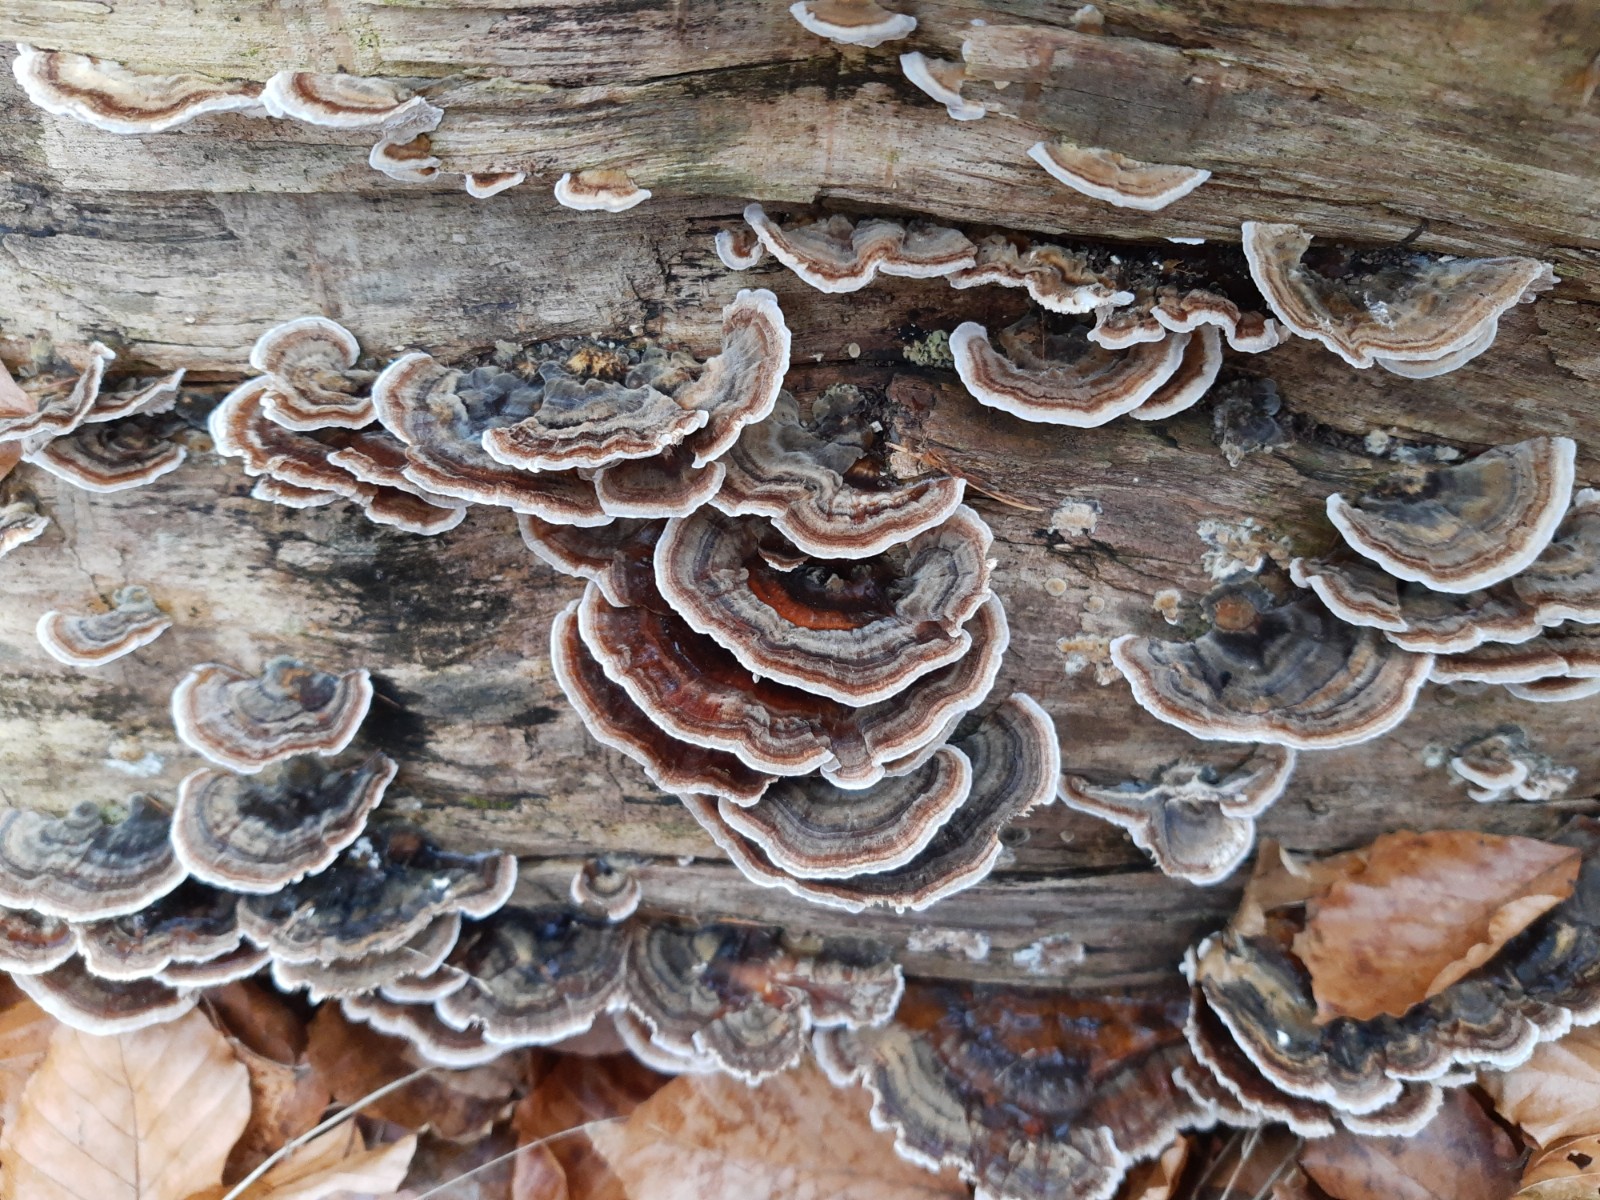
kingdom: Fungi
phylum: Basidiomycota
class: Agaricomycetes
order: Polyporales
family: Polyporaceae
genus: Trametes
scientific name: Trametes versicolor
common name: broget læderporesvamp
